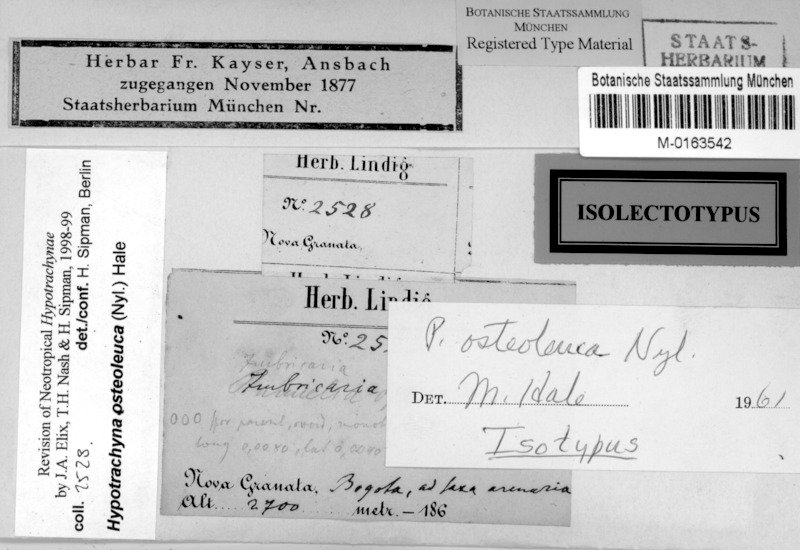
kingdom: Fungi
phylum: Ascomycota
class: Lecanoromycetes
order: Lecanorales
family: Parmeliaceae
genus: Hypotrachyna
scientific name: Hypotrachyna osteoleuca
